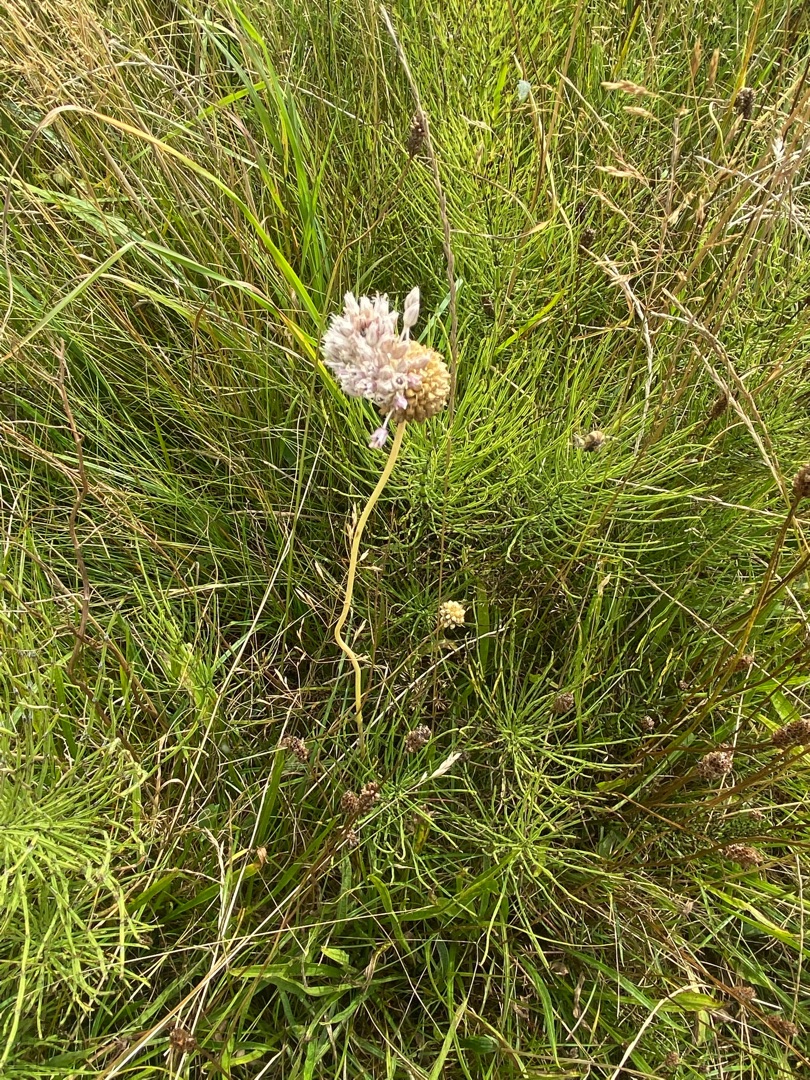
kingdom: Plantae
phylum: Tracheophyta
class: Liliopsida
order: Asparagales
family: Amaryllidaceae
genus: Allium
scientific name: Allium vineale
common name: Sand-løg
